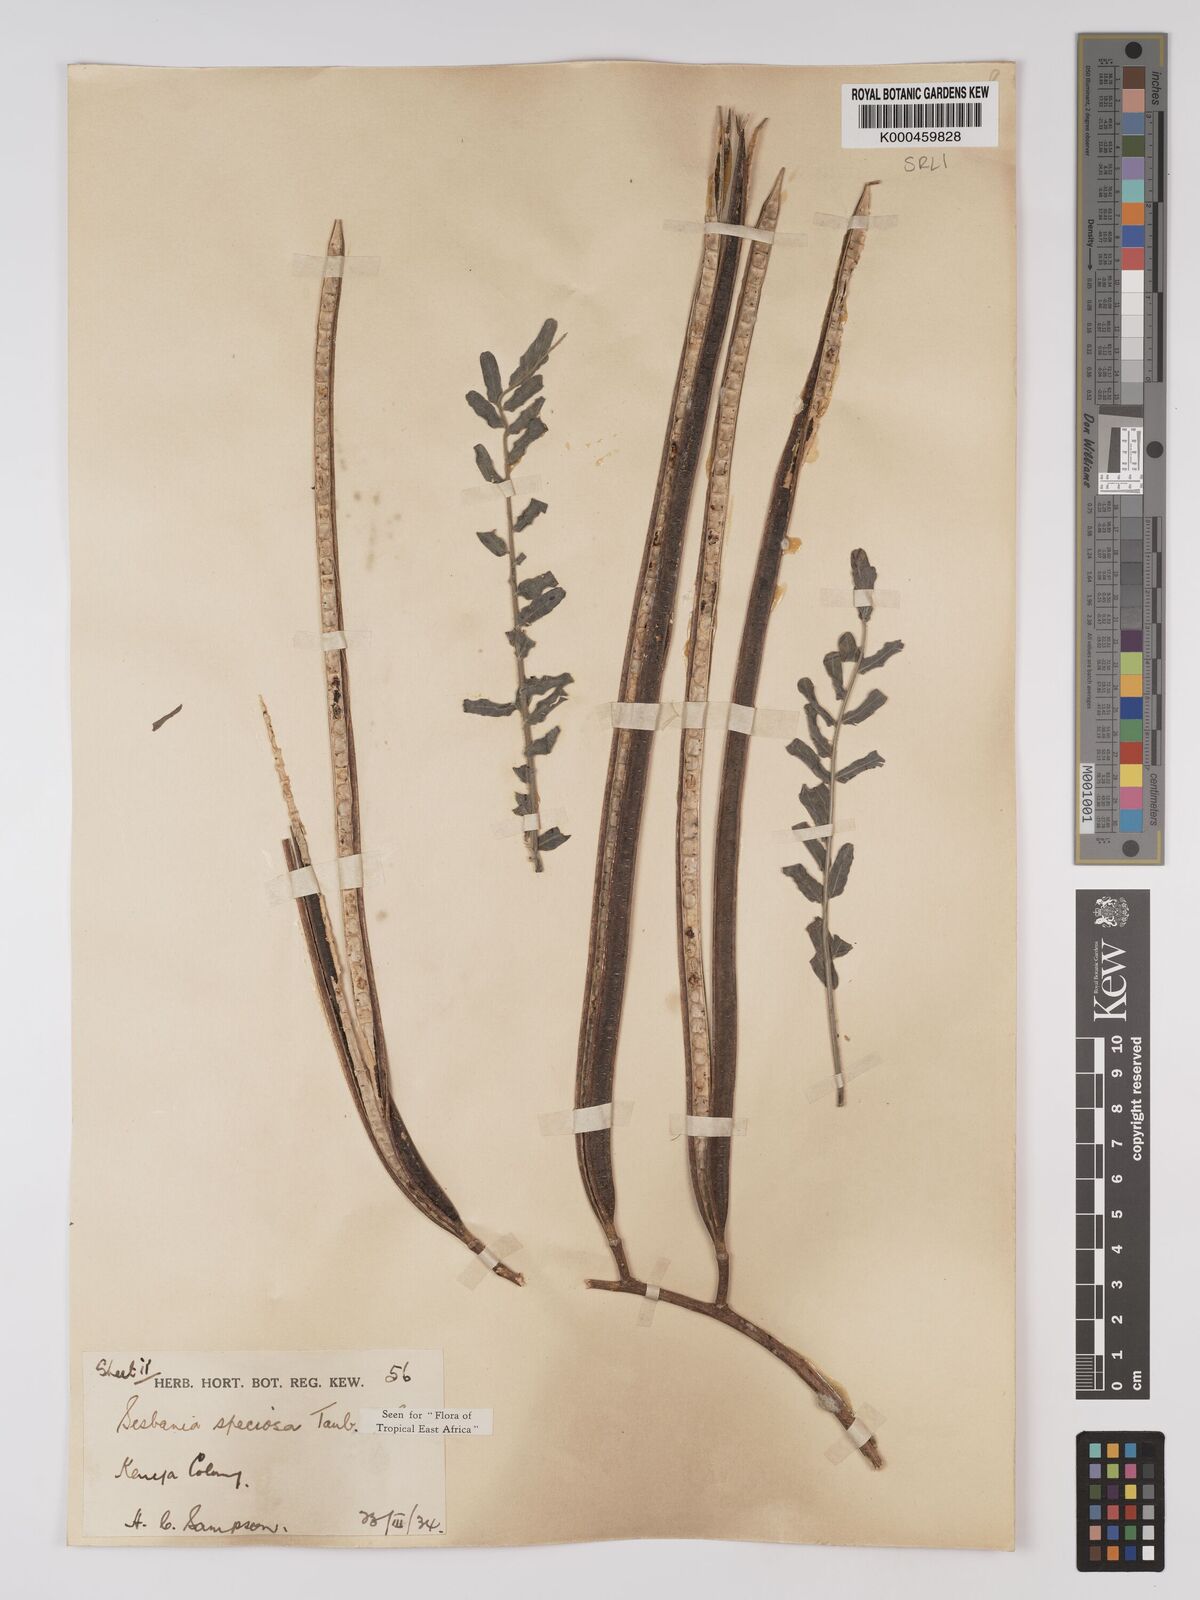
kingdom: Plantae
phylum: Tracheophyta
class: Magnoliopsida
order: Fabales
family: Fabaceae
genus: Sesbania
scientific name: Sesbania
